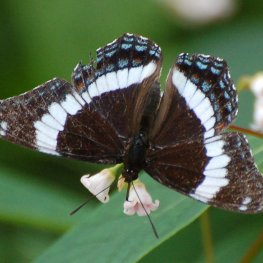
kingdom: Animalia
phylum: Arthropoda
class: Insecta
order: Lepidoptera
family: Nymphalidae
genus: Limenitis
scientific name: Limenitis arthemis
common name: Red-spotted Admiral
